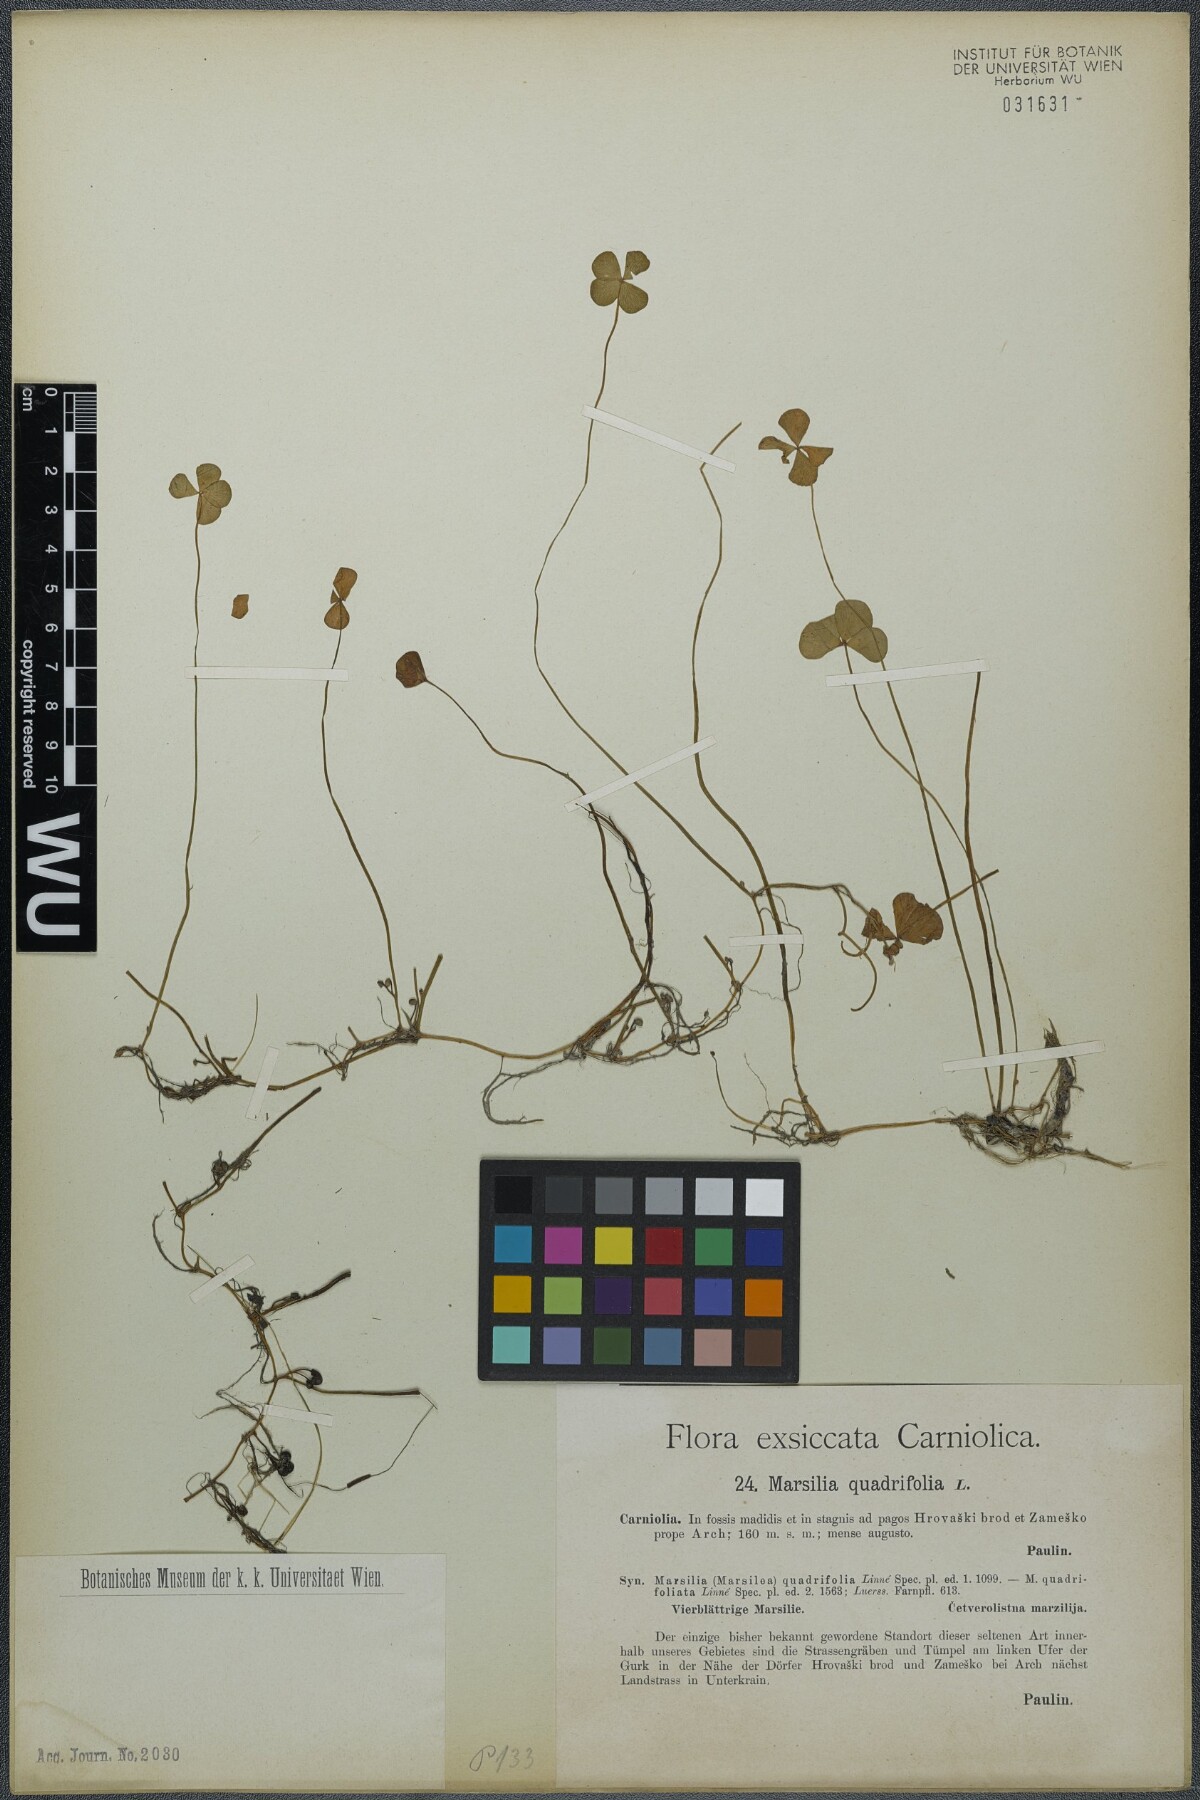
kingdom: Plantae
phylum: Tracheophyta
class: Polypodiopsida
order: Salviniales
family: Marsileaceae
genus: Marsilea
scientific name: Marsilea quadrifolia
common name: Water shamrock
